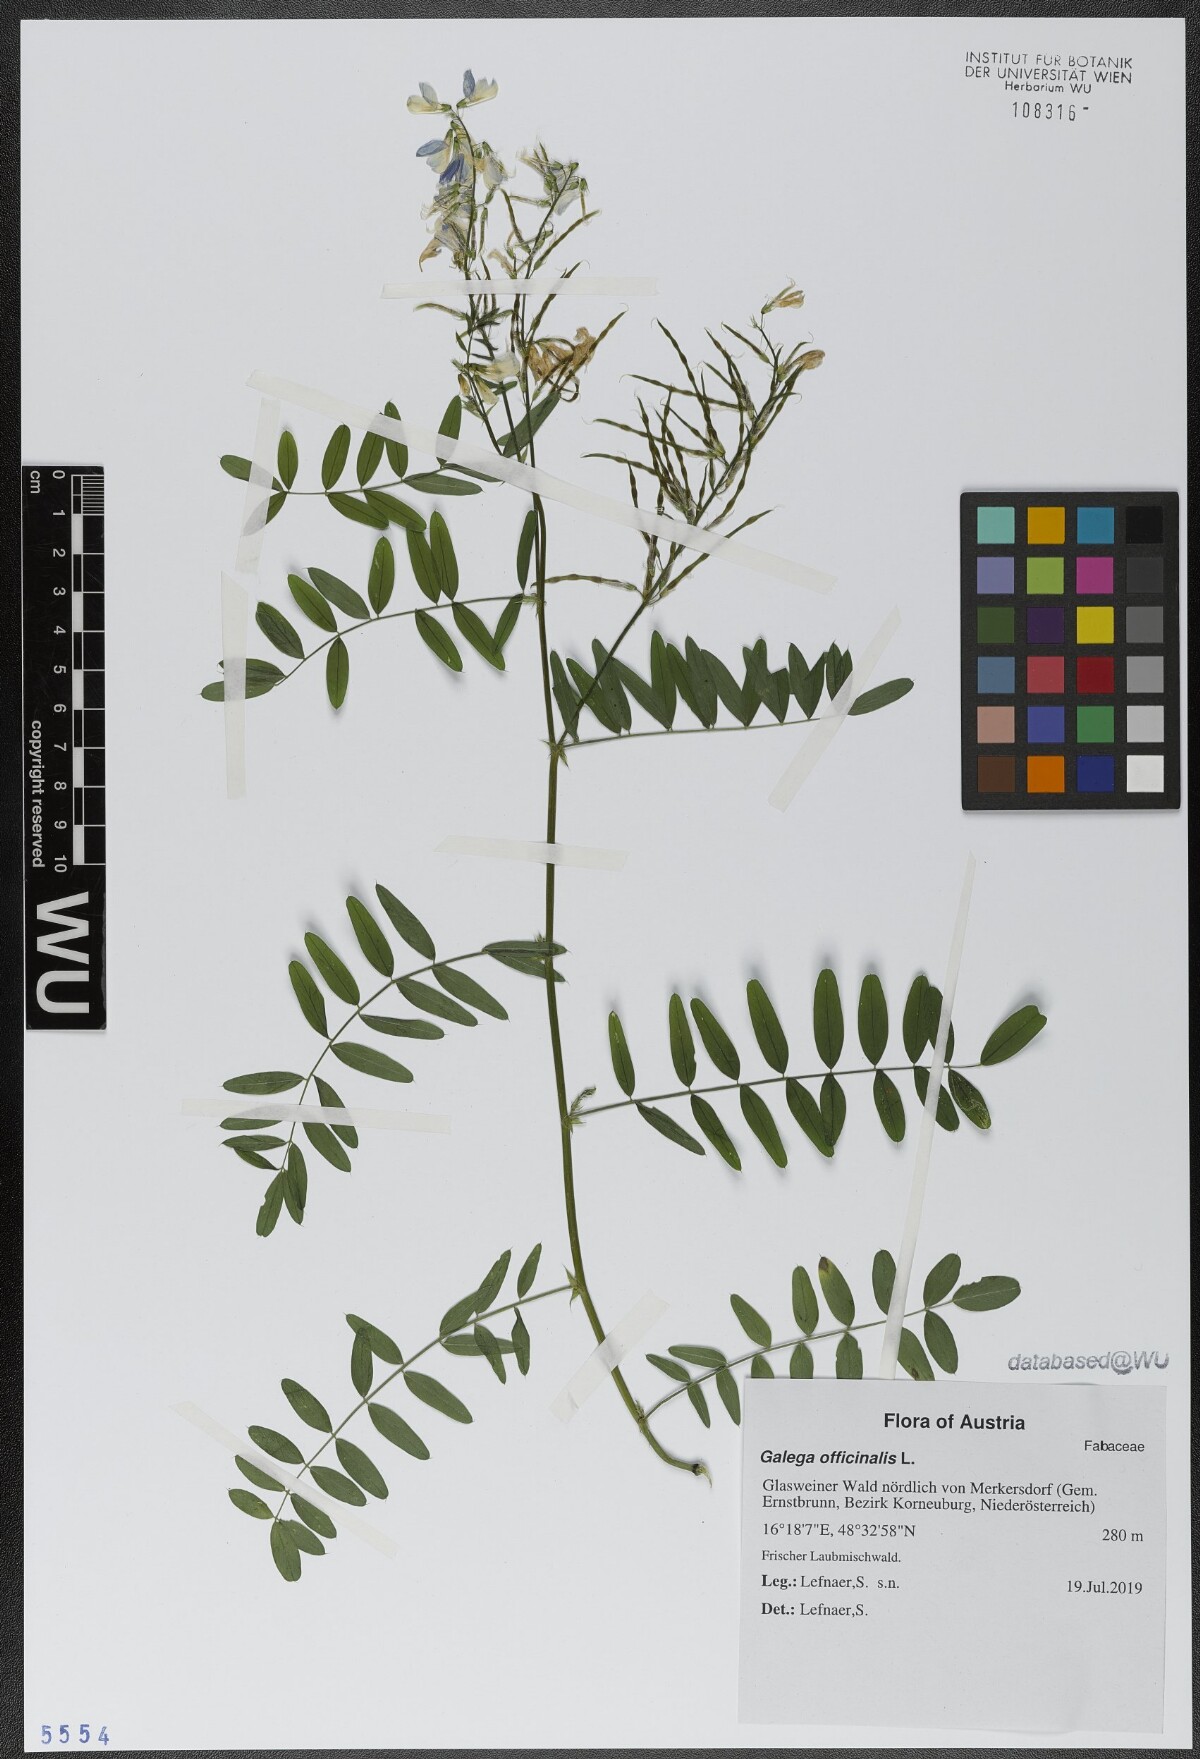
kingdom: Plantae
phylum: Tracheophyta
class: Magnoliopsida
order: Fabales
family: Fabaceae
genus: Galega
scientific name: Galega officinalis
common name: Goat's-rue
